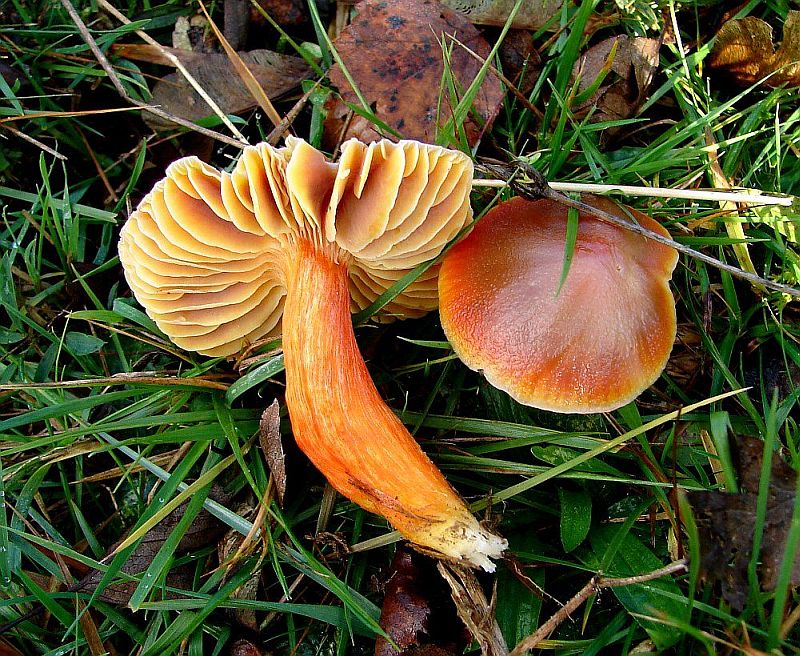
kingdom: Fungi
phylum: Basidiomycota
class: Agaricomycetes
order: Agaricales
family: Hygrophoraceae
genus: Hygrocybe
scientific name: Hygrocybe punicea
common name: skarlagen-vokshat
